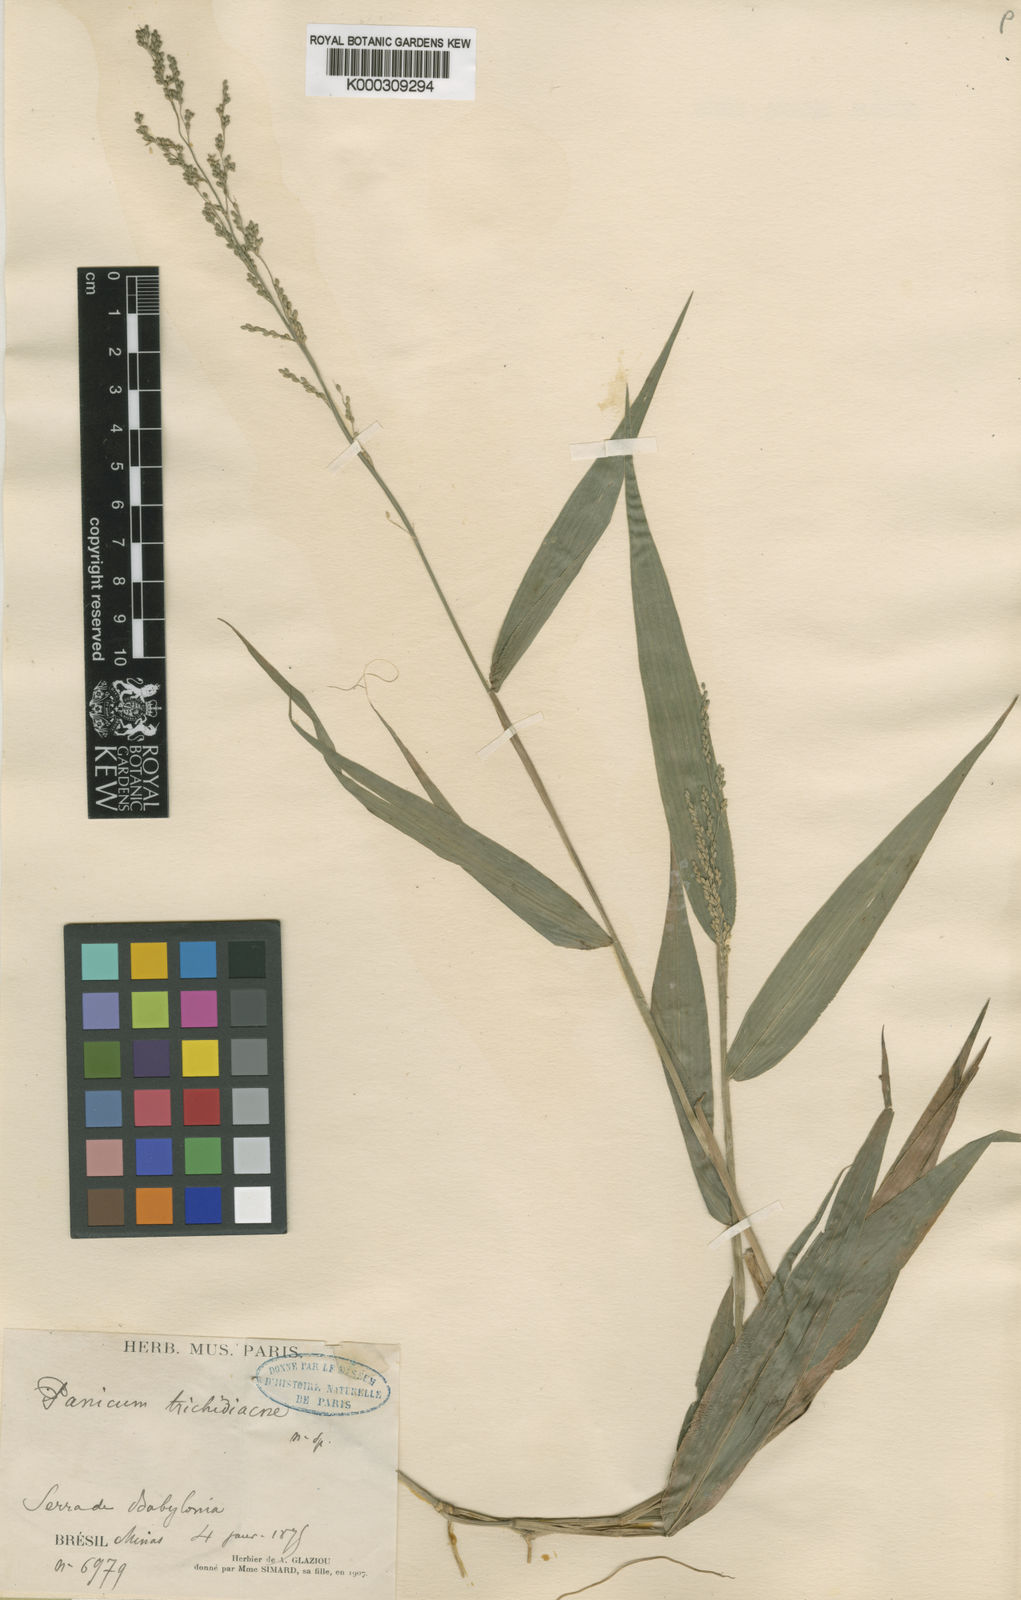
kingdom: Plantae
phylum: Tracheophyta
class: Liliopsida
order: Poales
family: Poaceae
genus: Panicum
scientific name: Panicum
